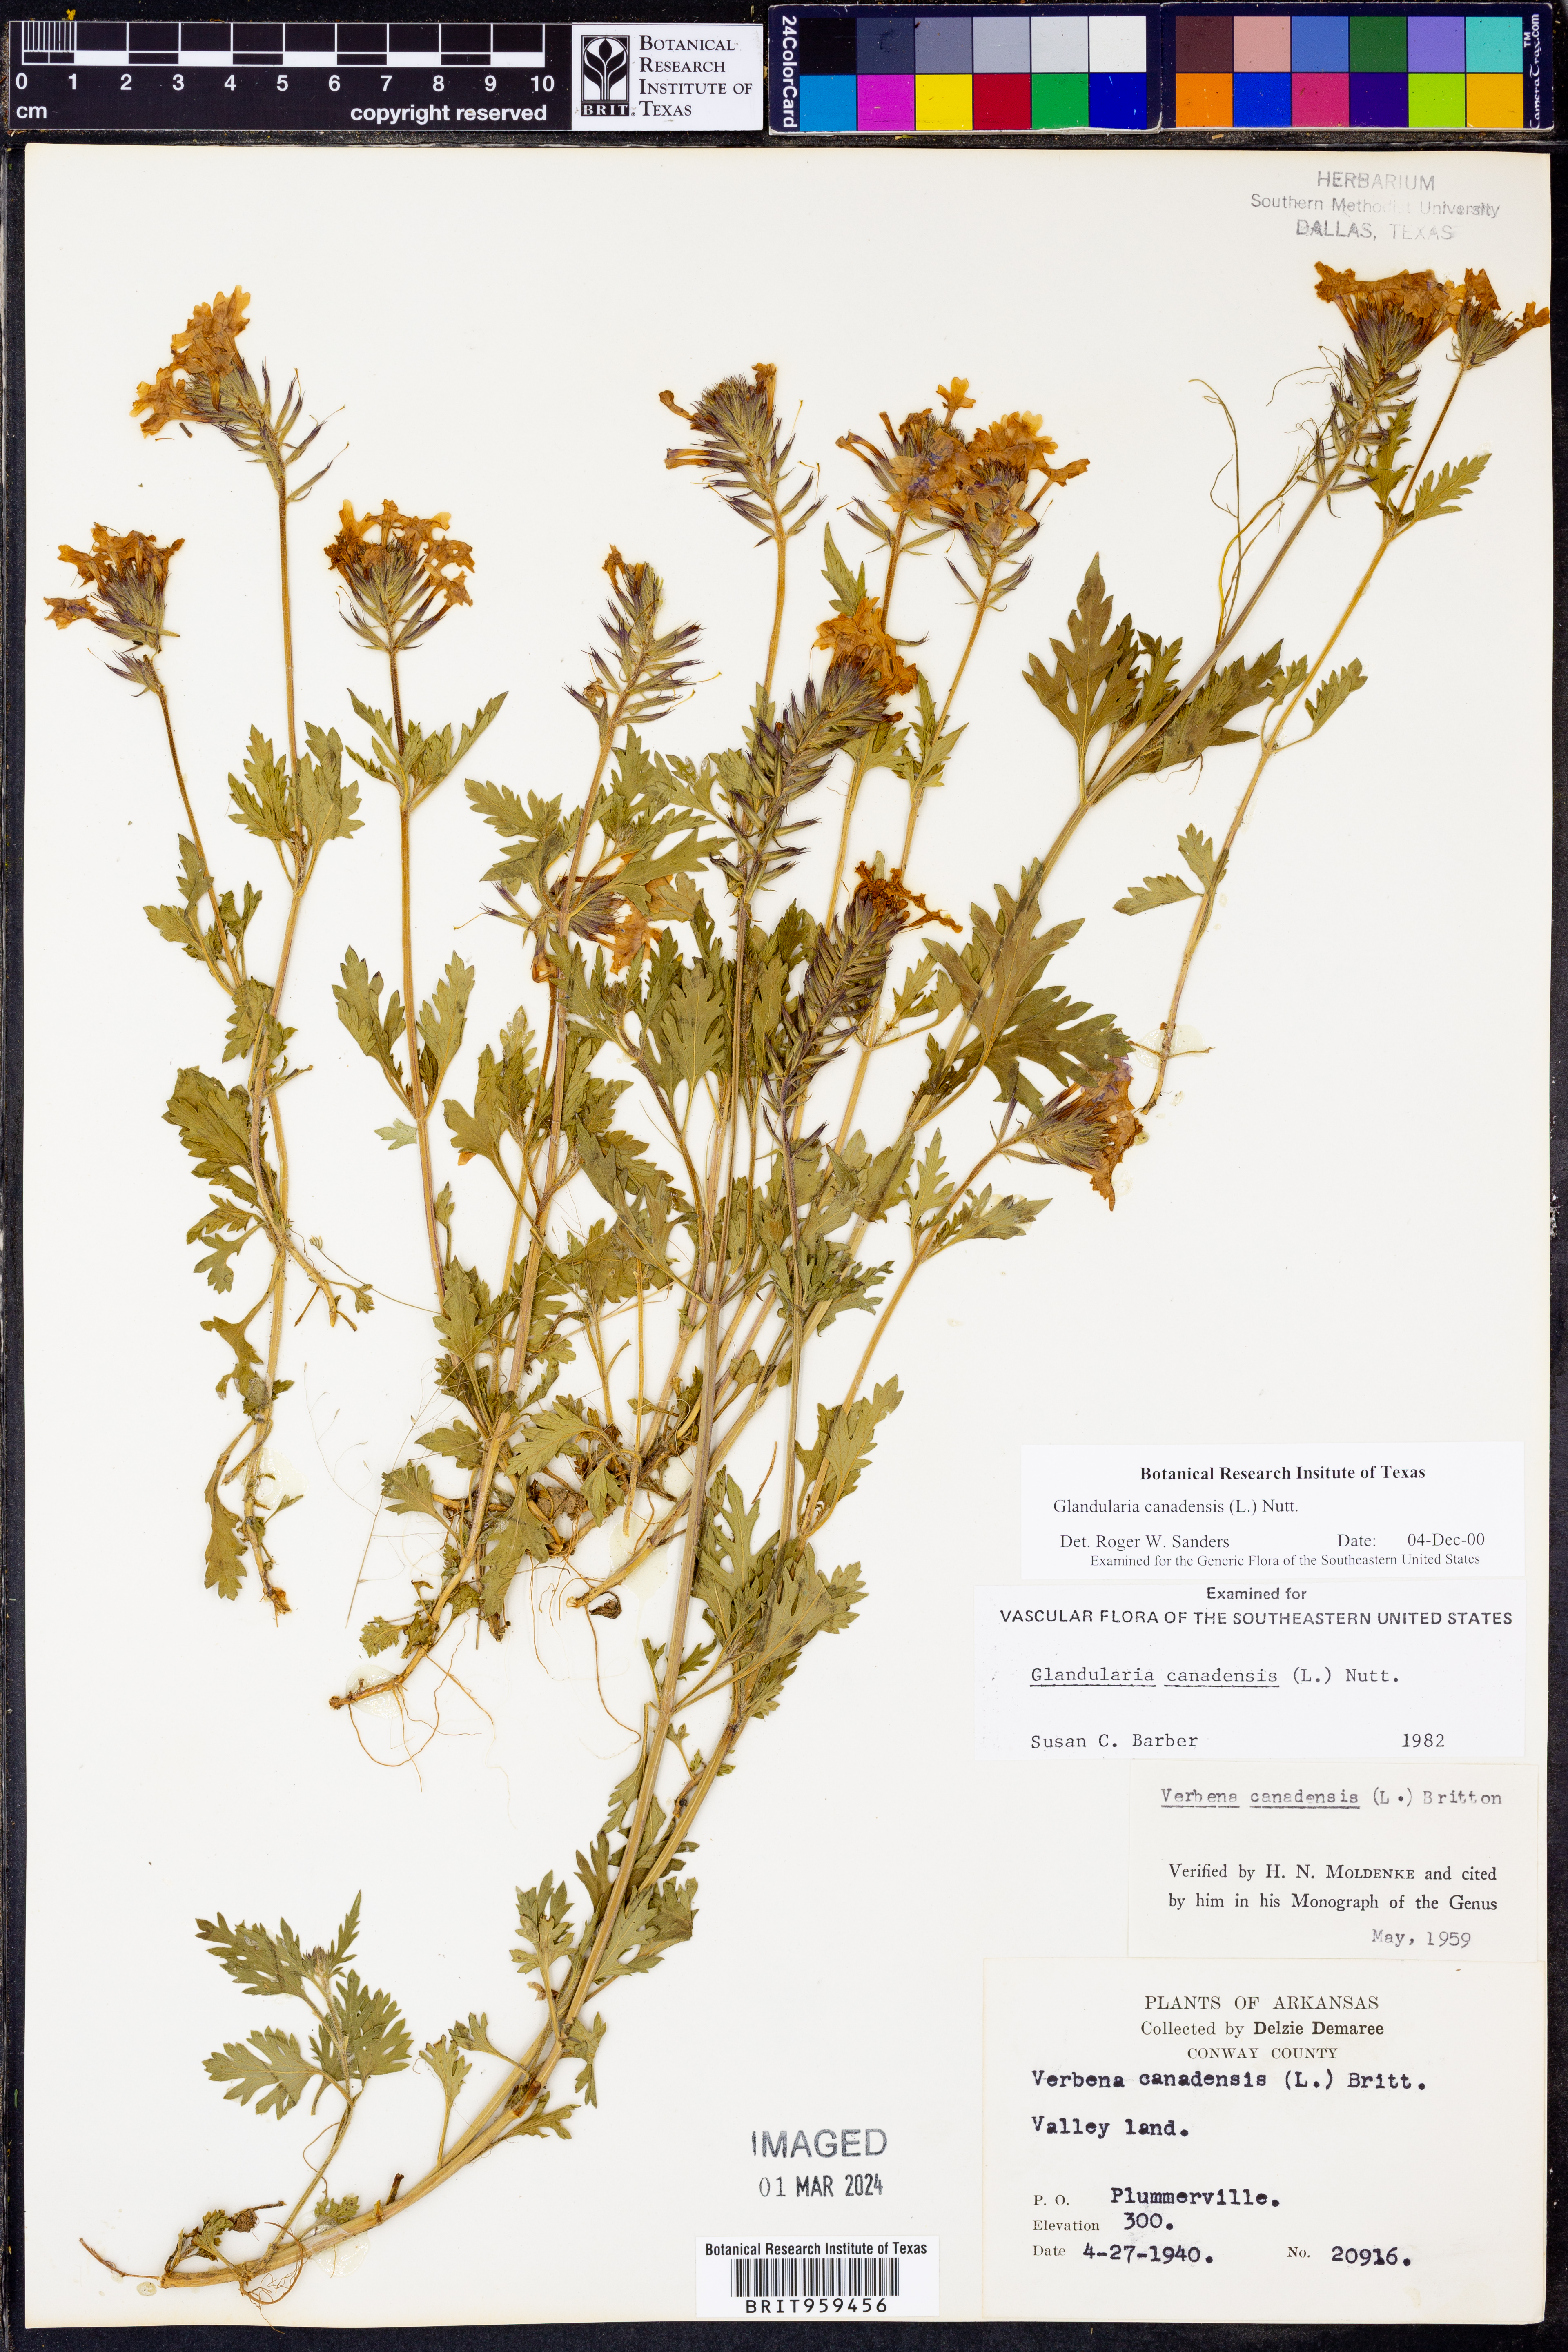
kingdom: Plantae
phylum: Tracheophyta
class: Magnoliopsida
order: Lamiales
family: Verbenaceae
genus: Verbena
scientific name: Verbena canadensis
